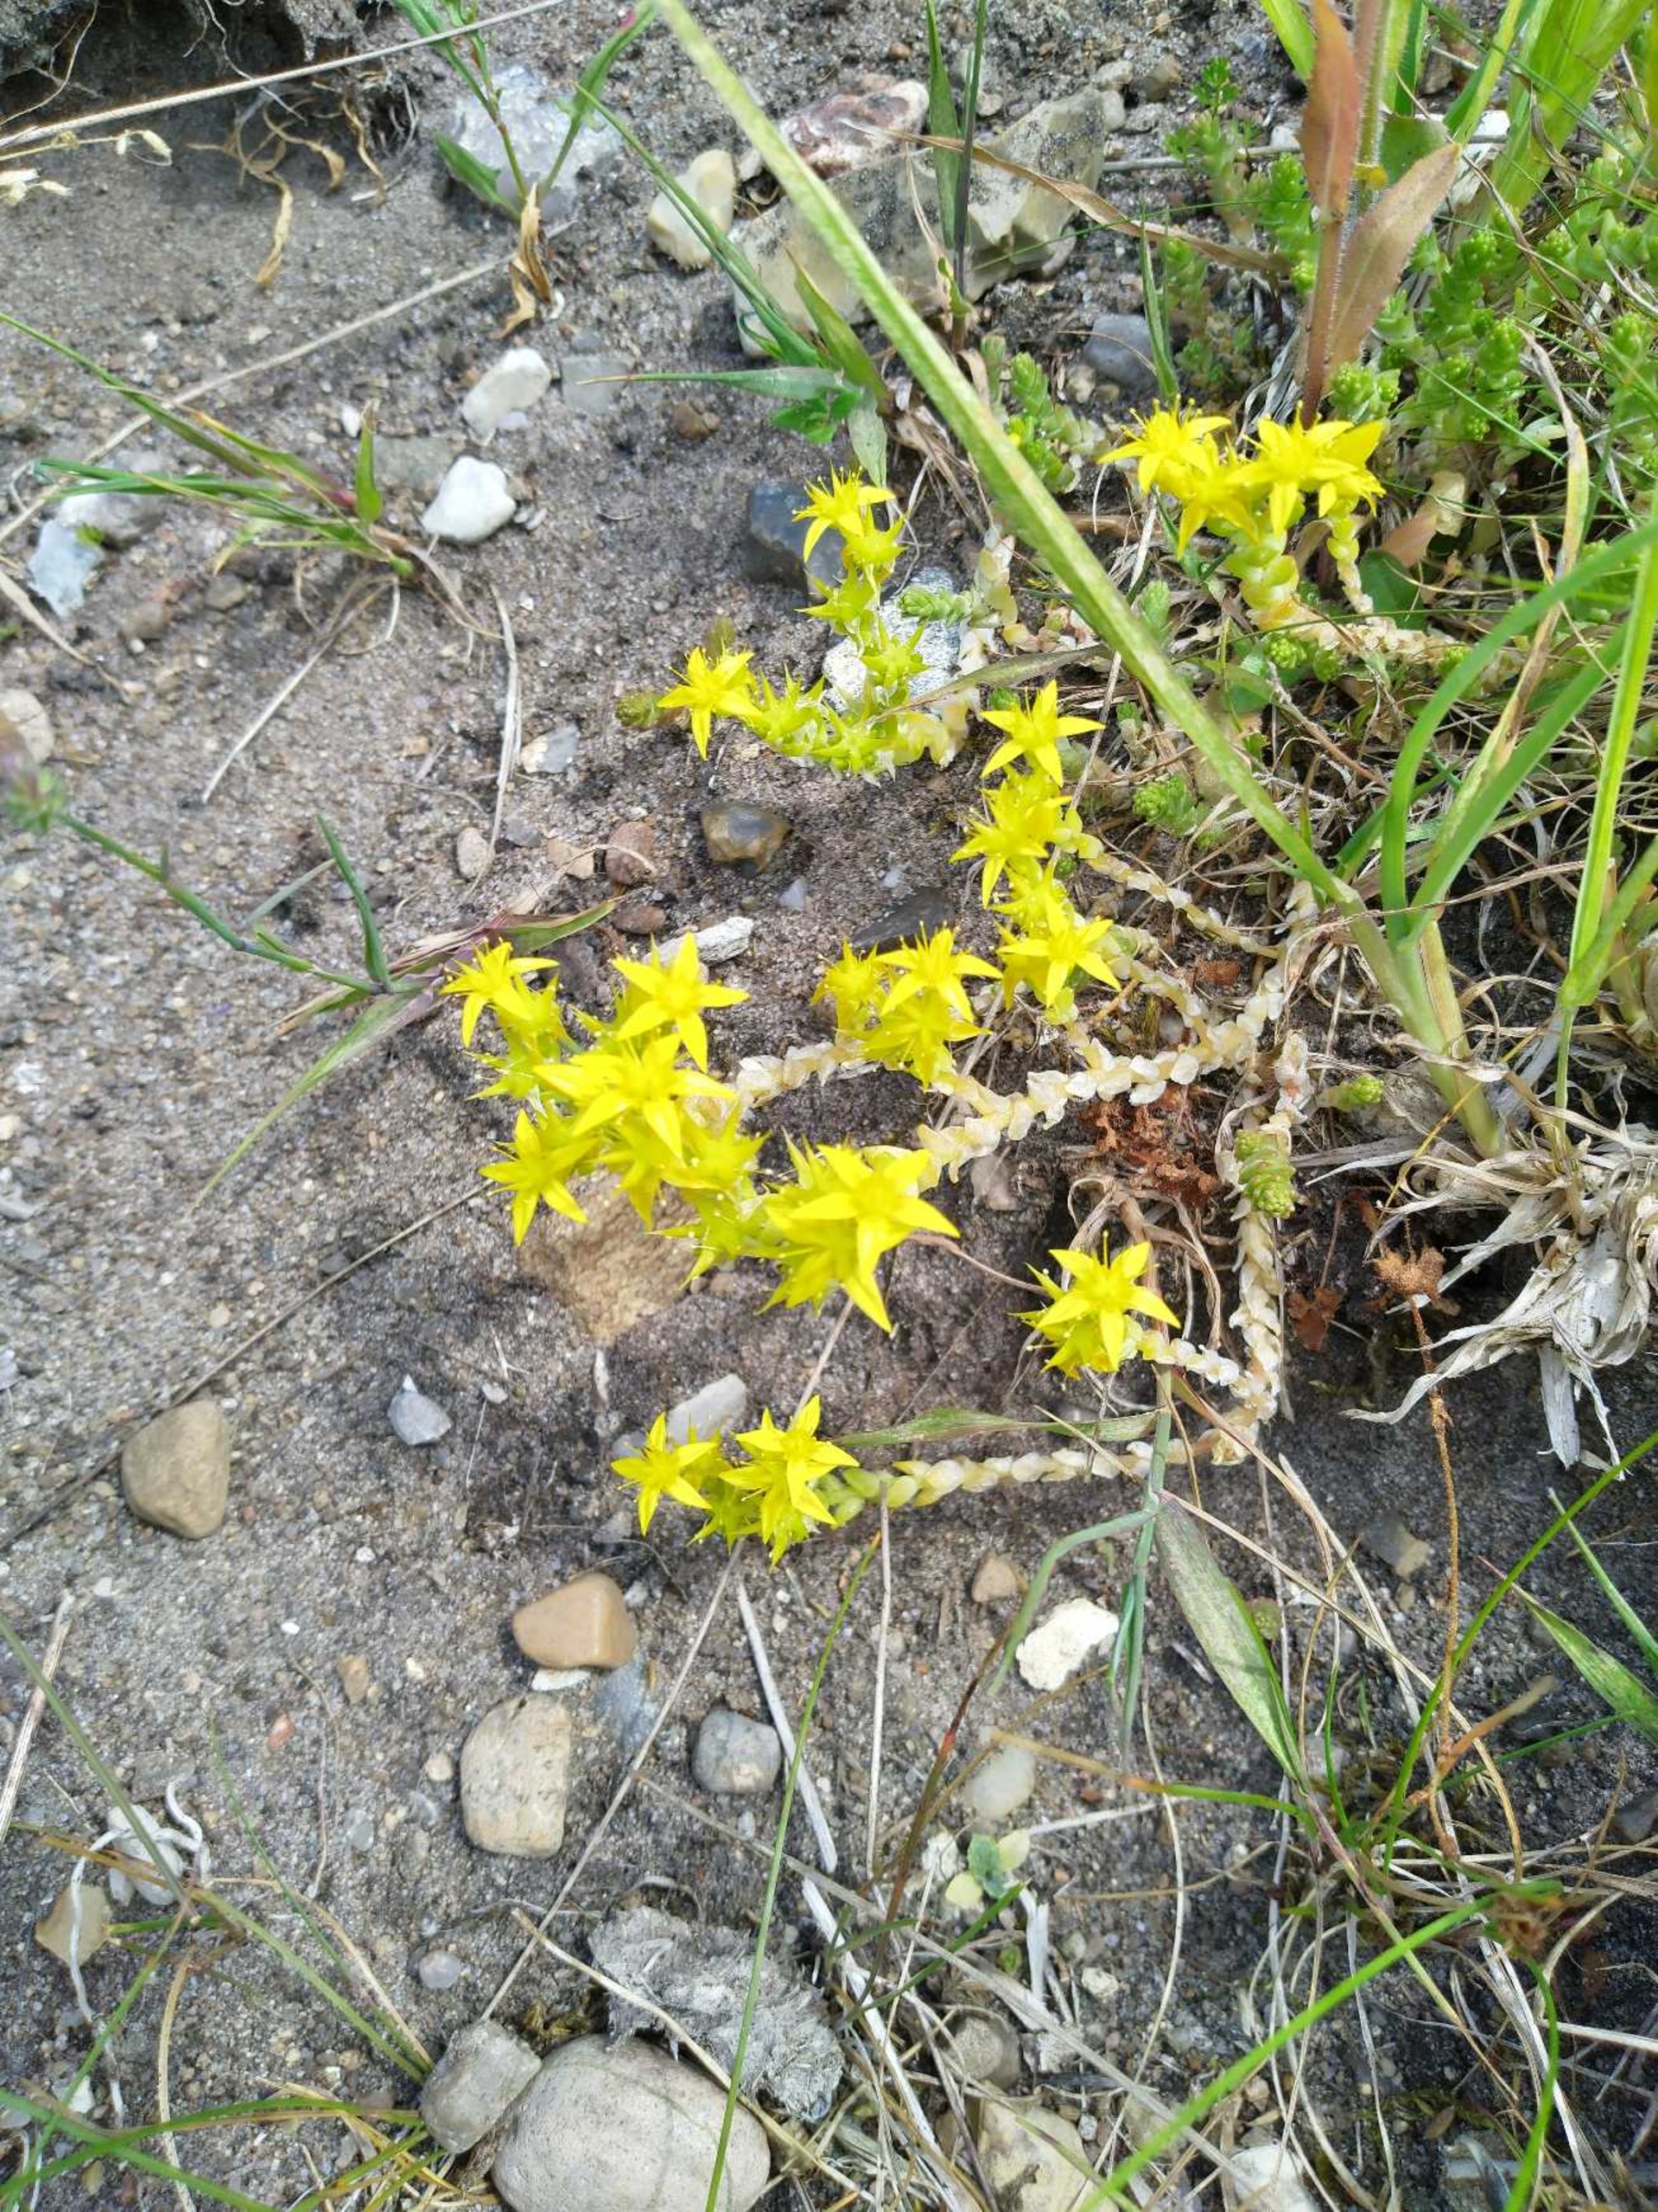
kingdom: Plantae
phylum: Tracheophyta
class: Magnoliopsida
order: Saxifragales
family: Crassulaceae
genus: Sedum
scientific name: Sedum acre
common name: Bidende stenurt
